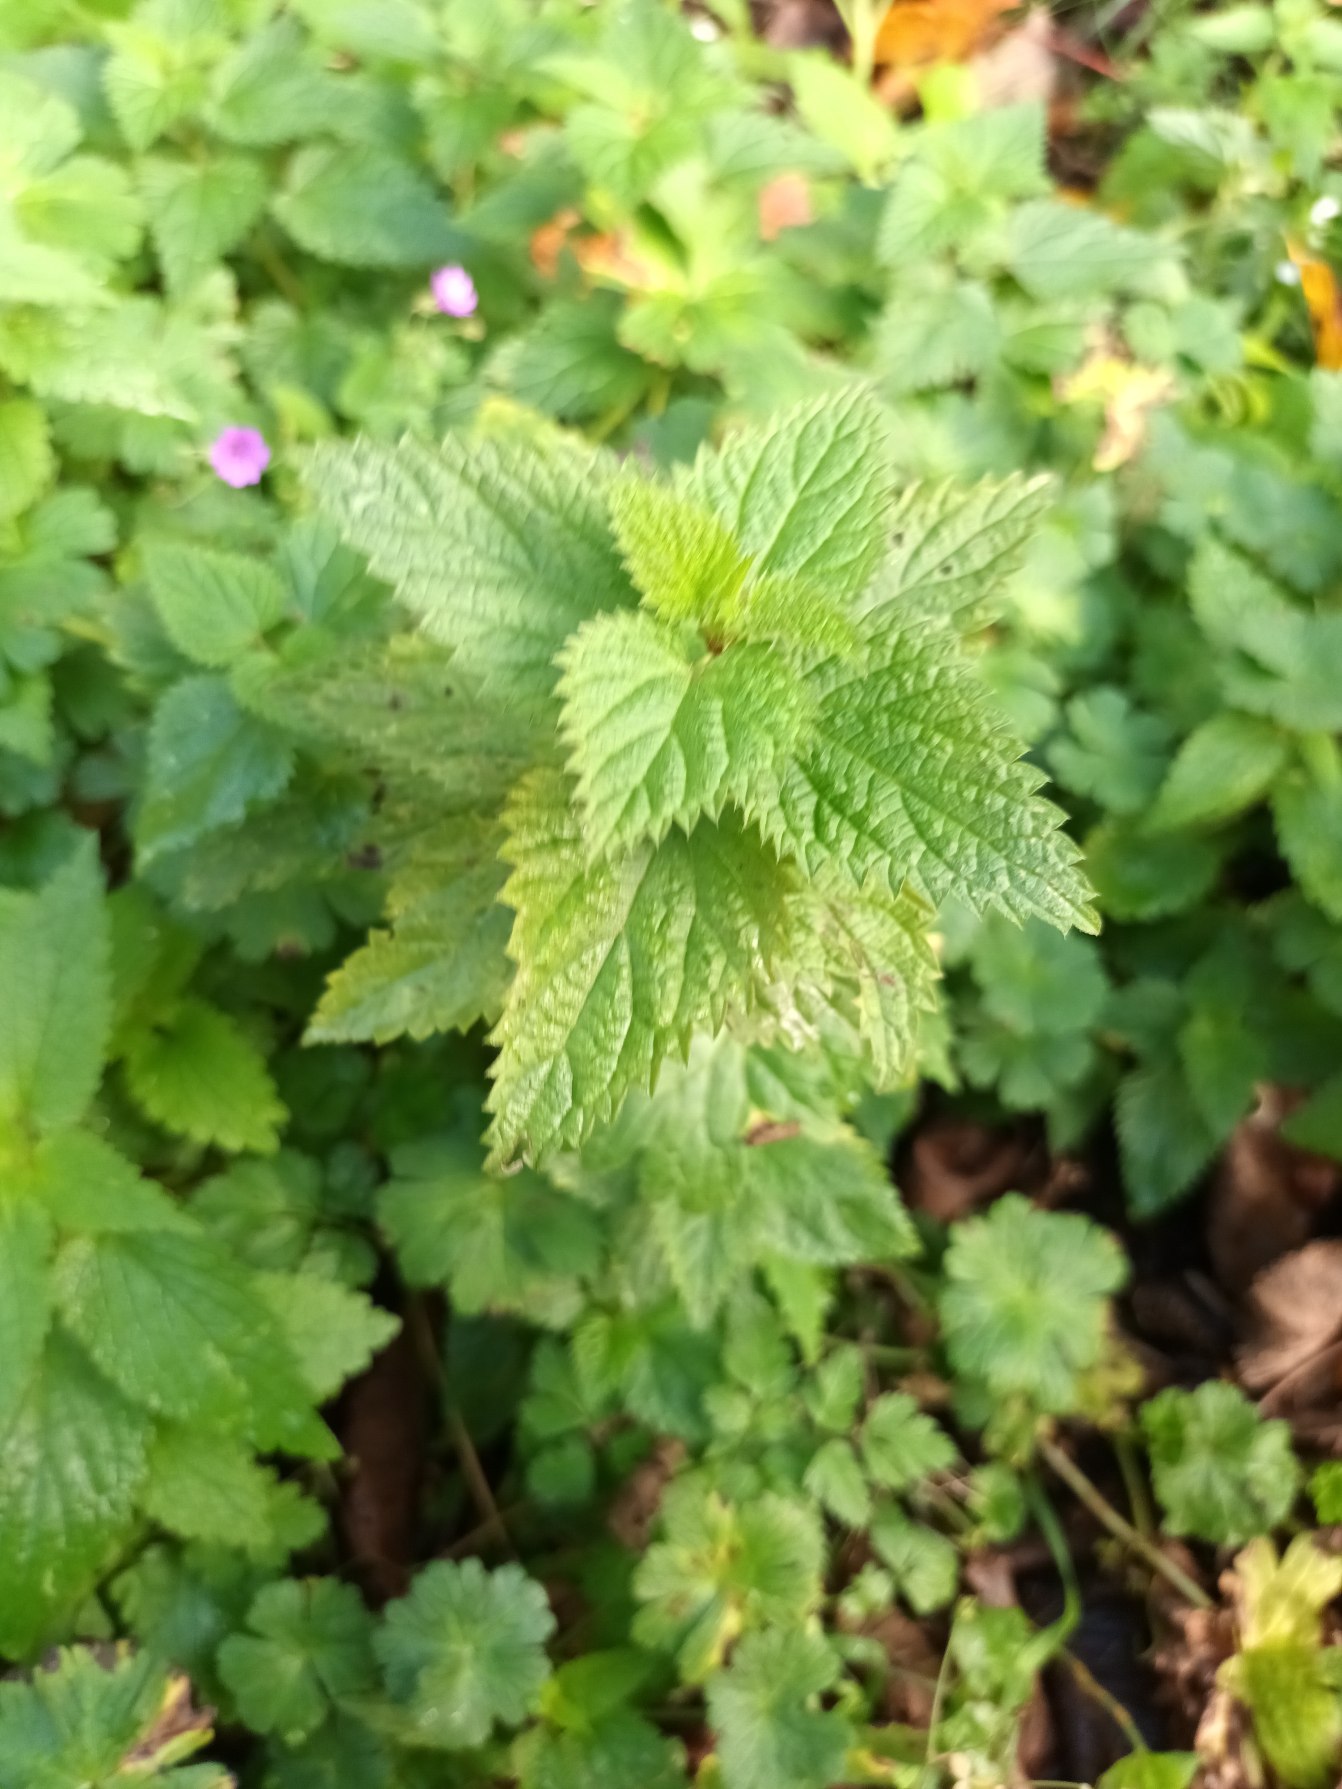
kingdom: Plantae
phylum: Tracheophyta
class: Magnoliopsida
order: Rosales
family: Urticaceae
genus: Urtica
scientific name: Urtica dioica
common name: Stor nælde
